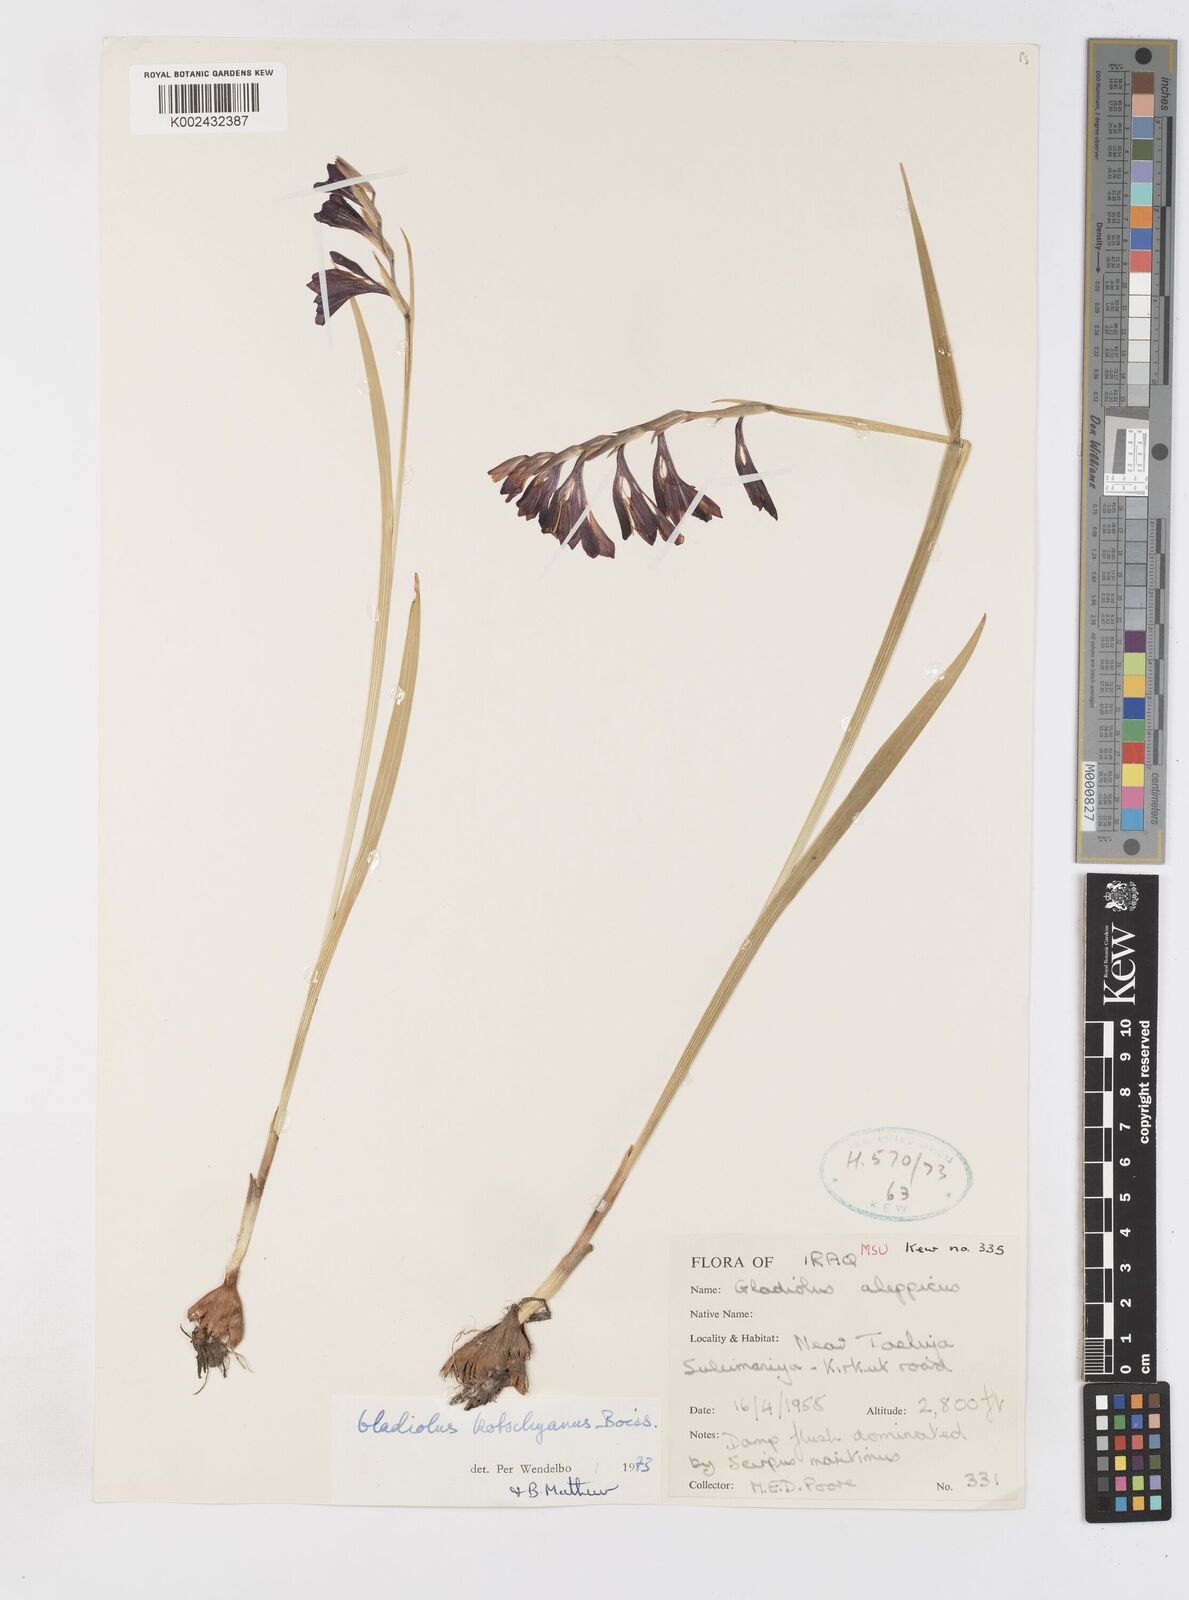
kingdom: Plantae
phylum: Tracheophyta
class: Liliopsida
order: Asparagales
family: Iridaceae
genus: Gladiolus
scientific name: Gladiolus kotschyanus
